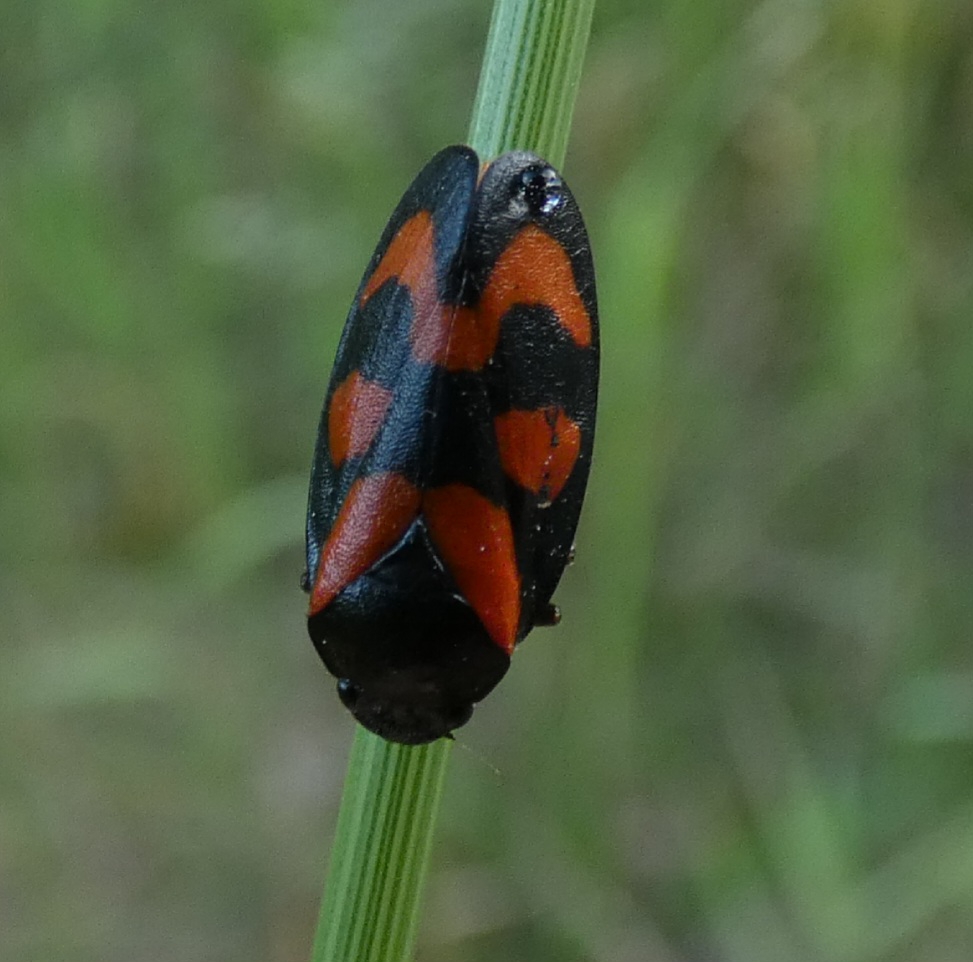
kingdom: Animalia
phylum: Arthropoda
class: Insecta
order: Hemiptera
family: Cercopidae
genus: Cercopis
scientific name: Cercopis vulnerata
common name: Blodcikade
